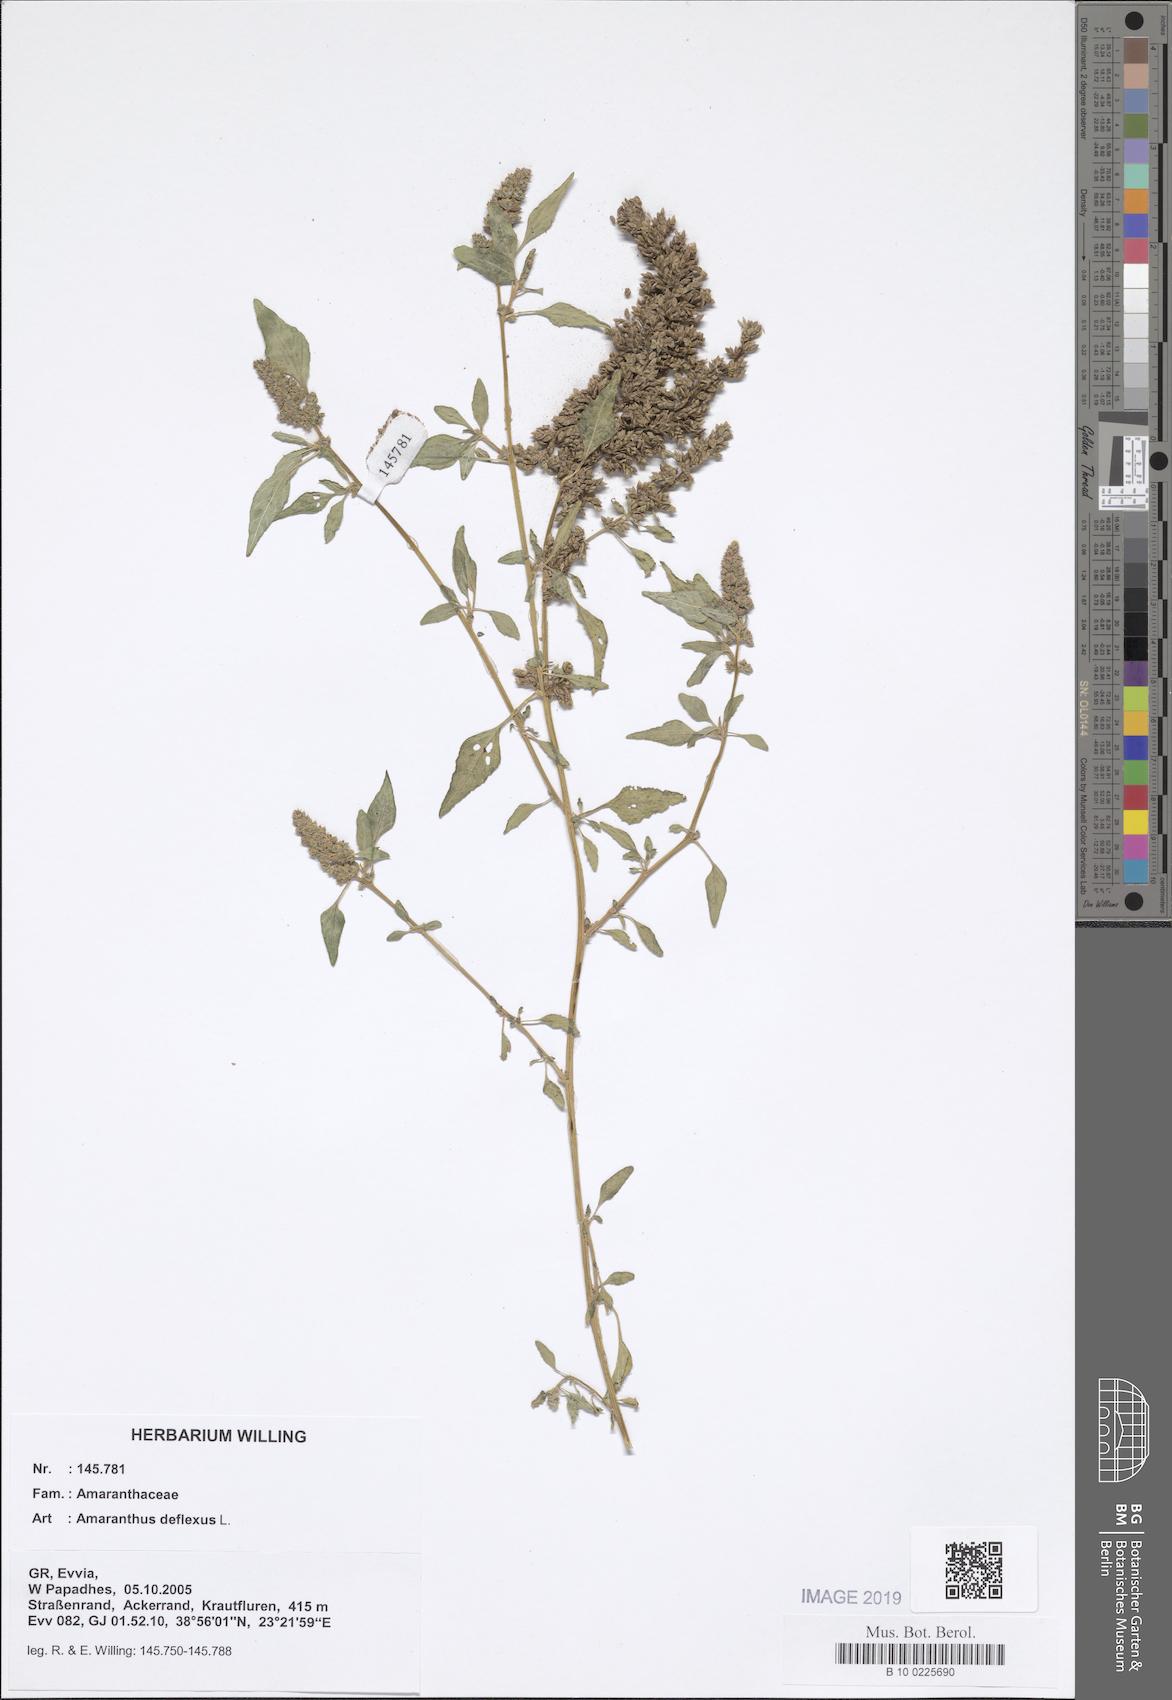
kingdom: Plantae
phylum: Tracheophyta
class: Magnoliopsida
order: Caryophyllales
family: Amaranthaceae
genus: Amaranthus
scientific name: Amaranthus deflexus
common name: Perennial pigweed
